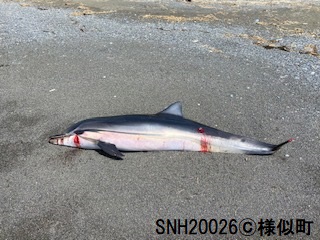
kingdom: Animalia
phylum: Chordata
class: Mammalia
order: Cetacea
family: Delphinidae
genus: Stenella
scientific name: Stenella coeruleoalba
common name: Striped dolphin
